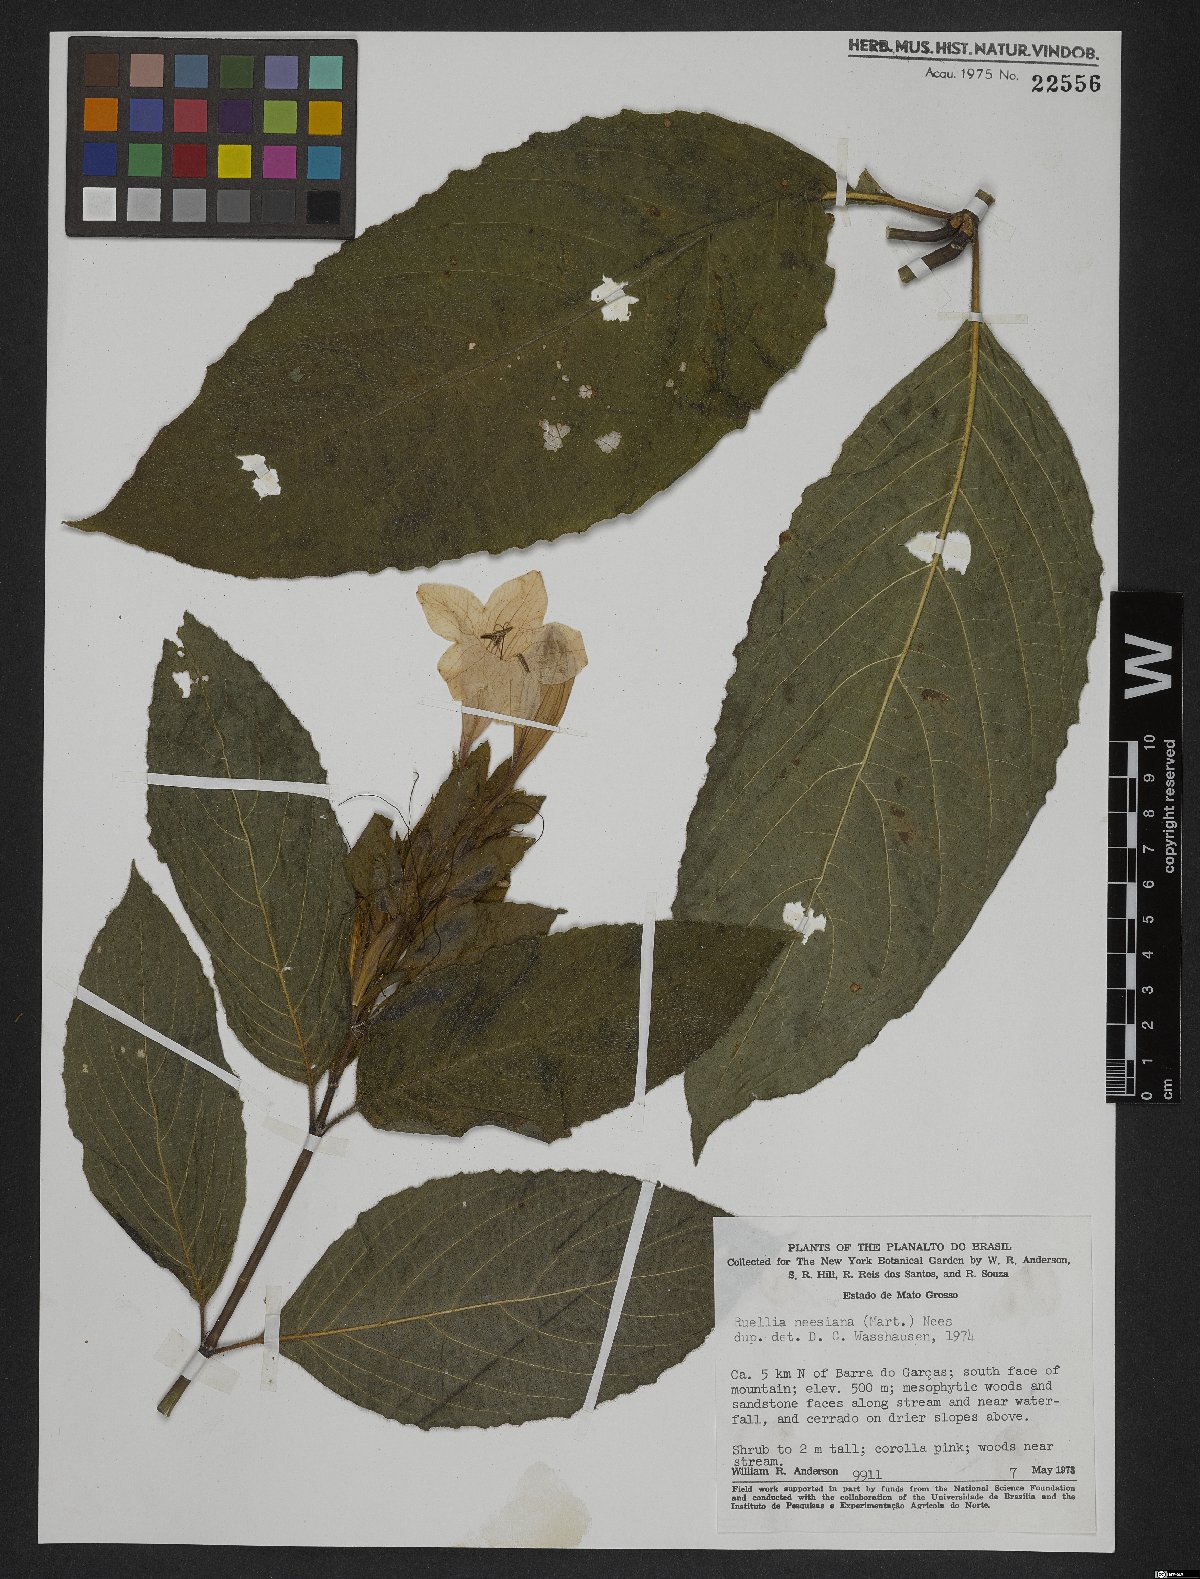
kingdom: Plantae
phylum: Tracheophyta
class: Magnoliopsida
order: Lamiales
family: Acanthaceae
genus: Mackaya
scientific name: Mackaya neesiana
